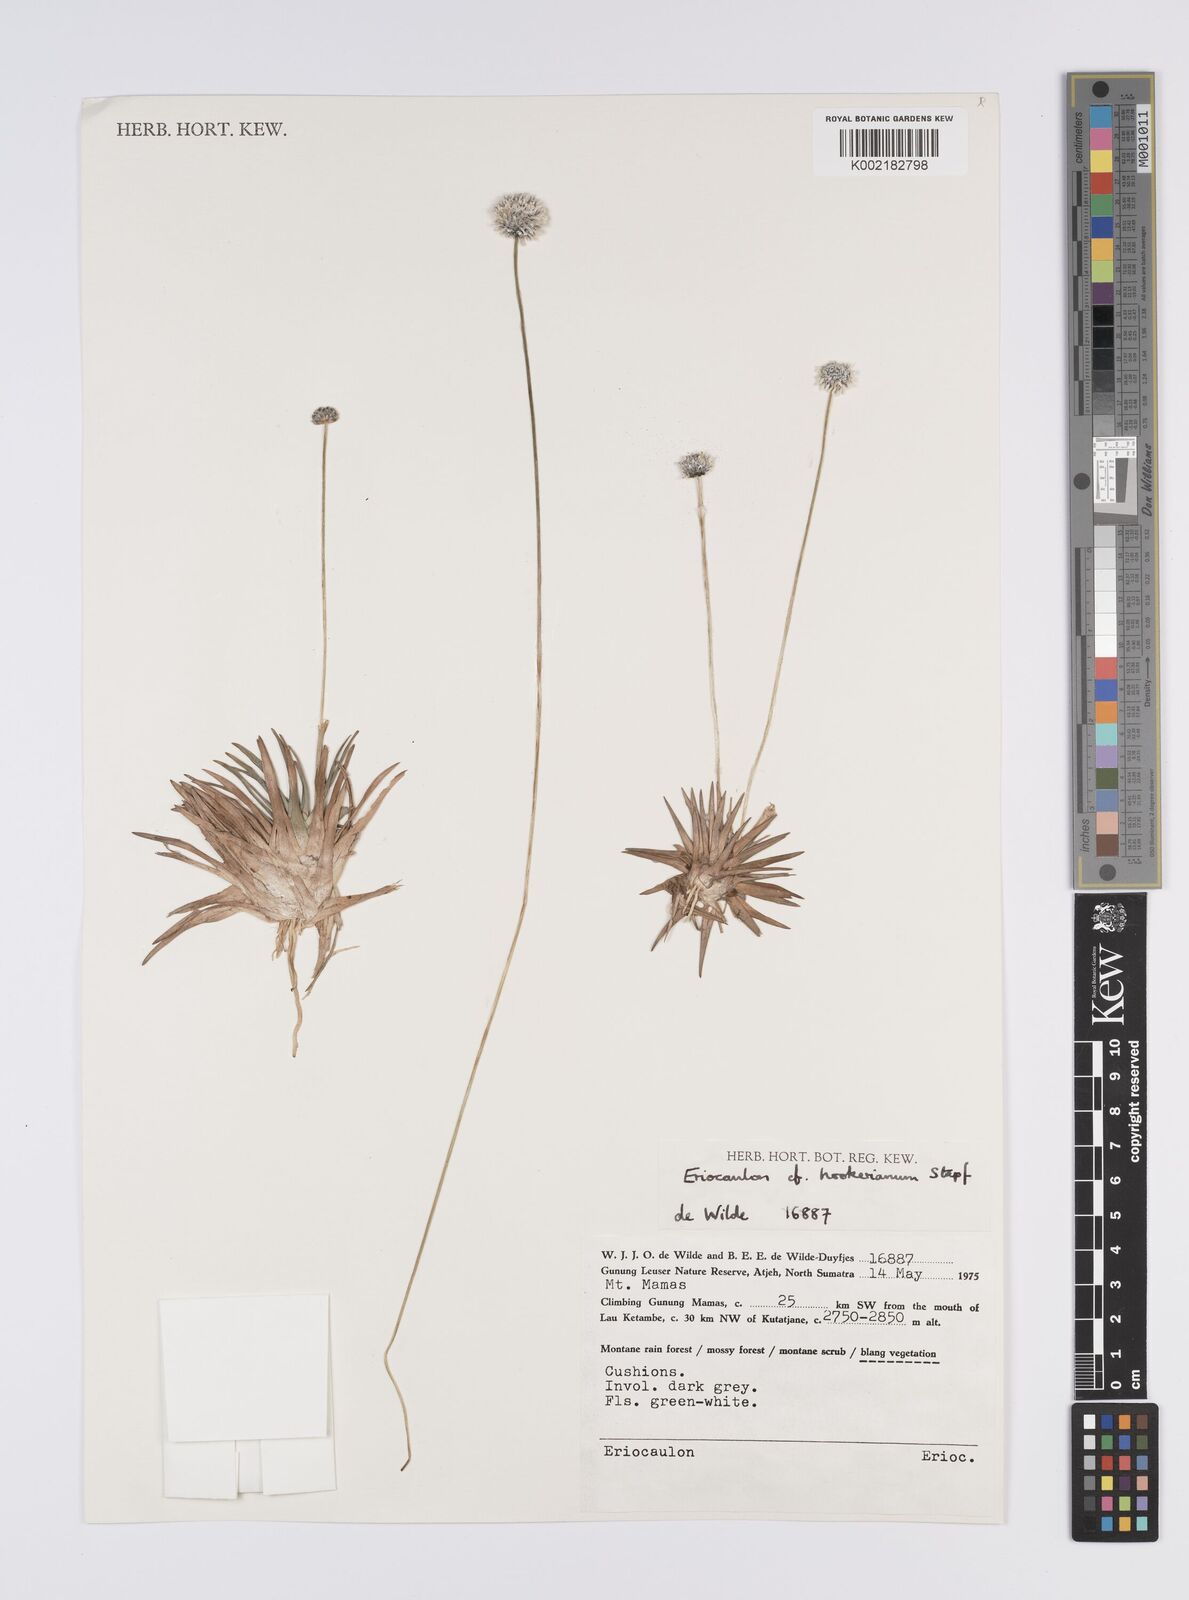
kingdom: Plantae
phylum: Tracheophyta
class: Liliopsida
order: Poales
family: Eriocaulaceae
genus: Eriocaulon
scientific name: Eriocaulon hookerianum
